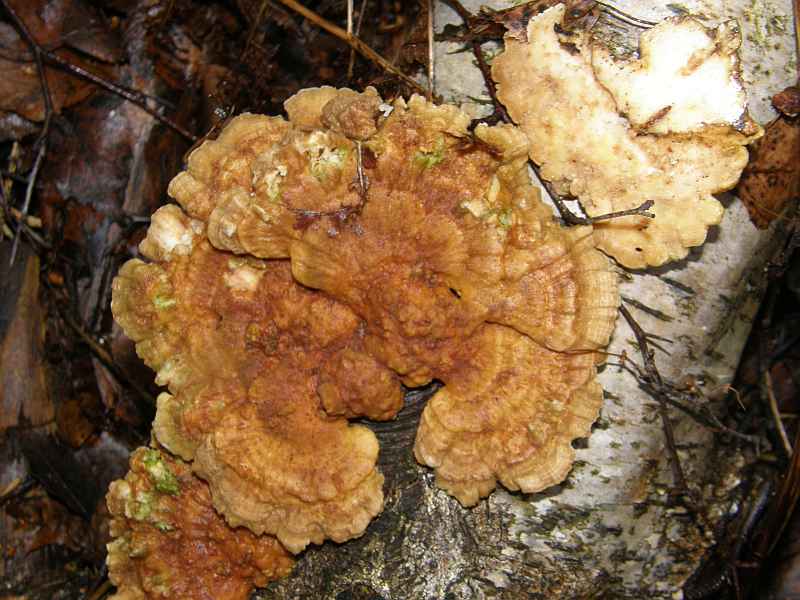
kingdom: Fungi
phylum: Basidiomycota
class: Agaricomycetes
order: Polyporales
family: Polyporaceae
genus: Trametes
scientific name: Trametes ochracea
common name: bæltet læderporesvamp
